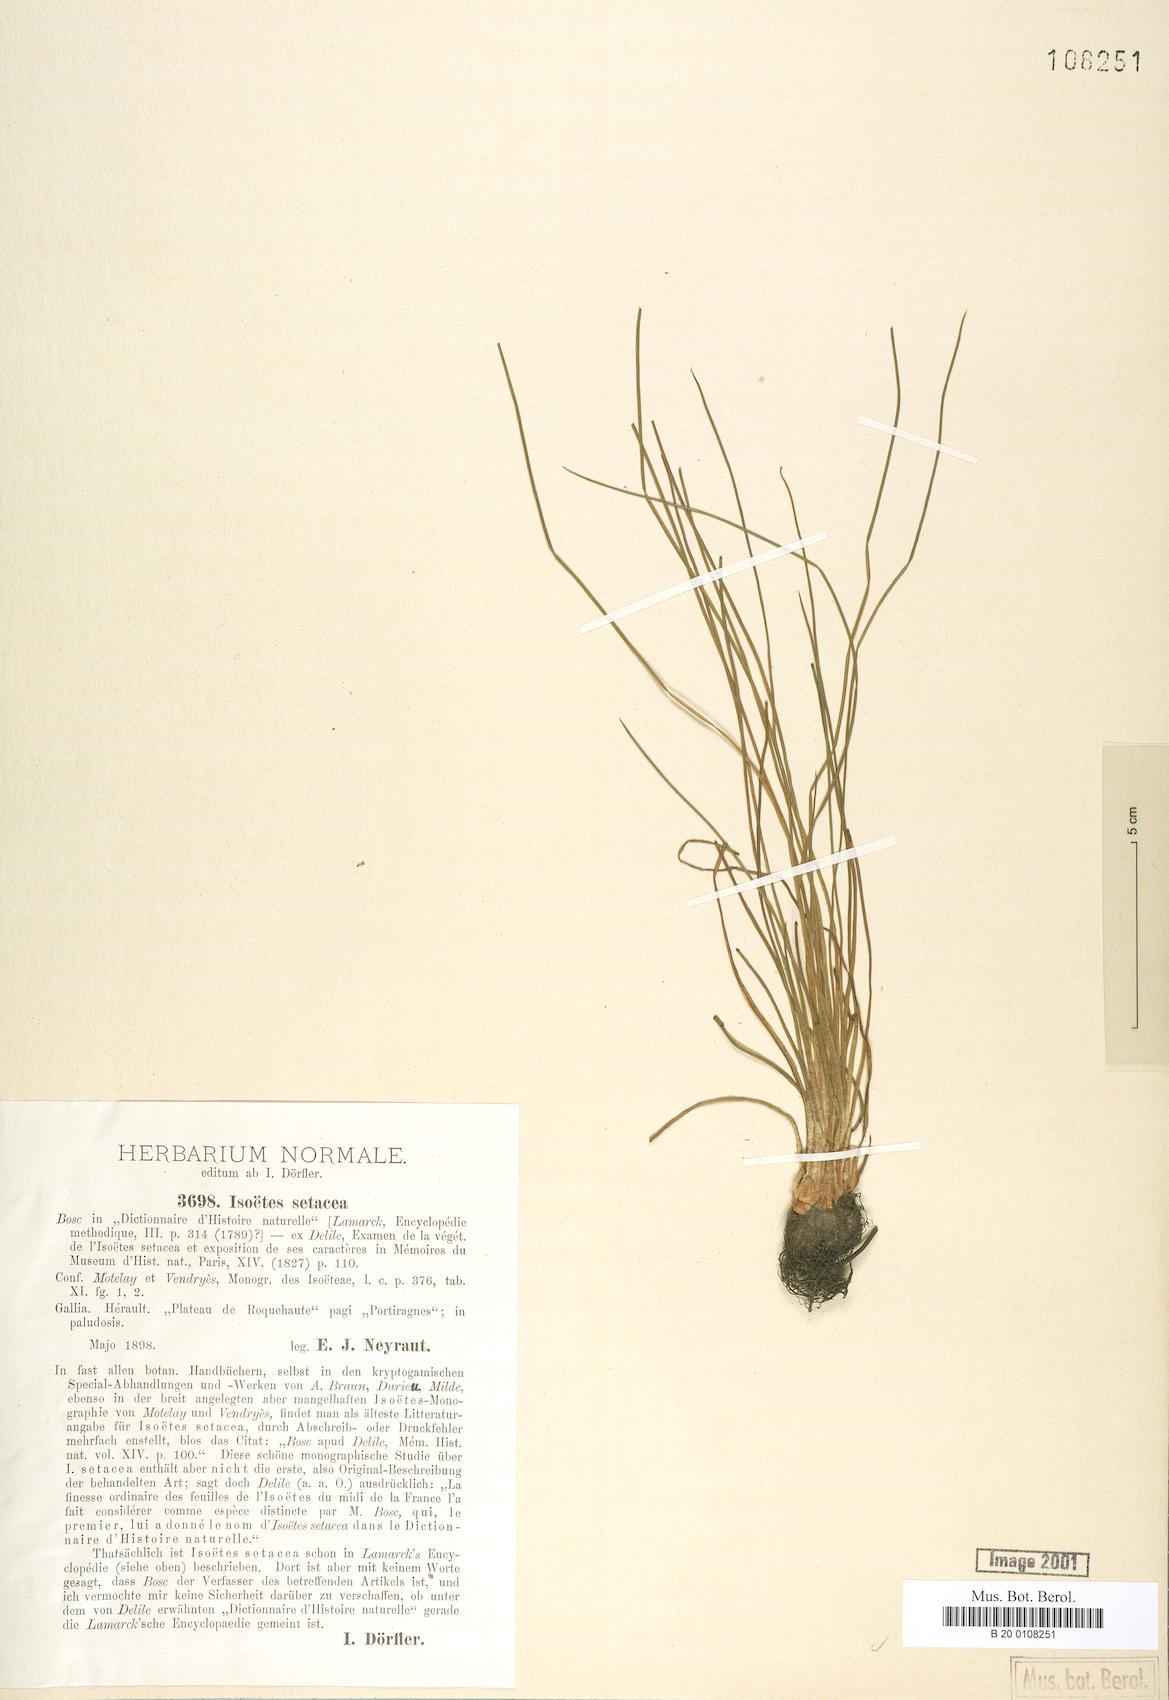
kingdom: Plantae
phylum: Tracheophyta
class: Lycopodiopsida
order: Isoetales
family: Isoetaceae
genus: Isoetes
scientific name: Isoetes lacustris
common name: Common quillwort
